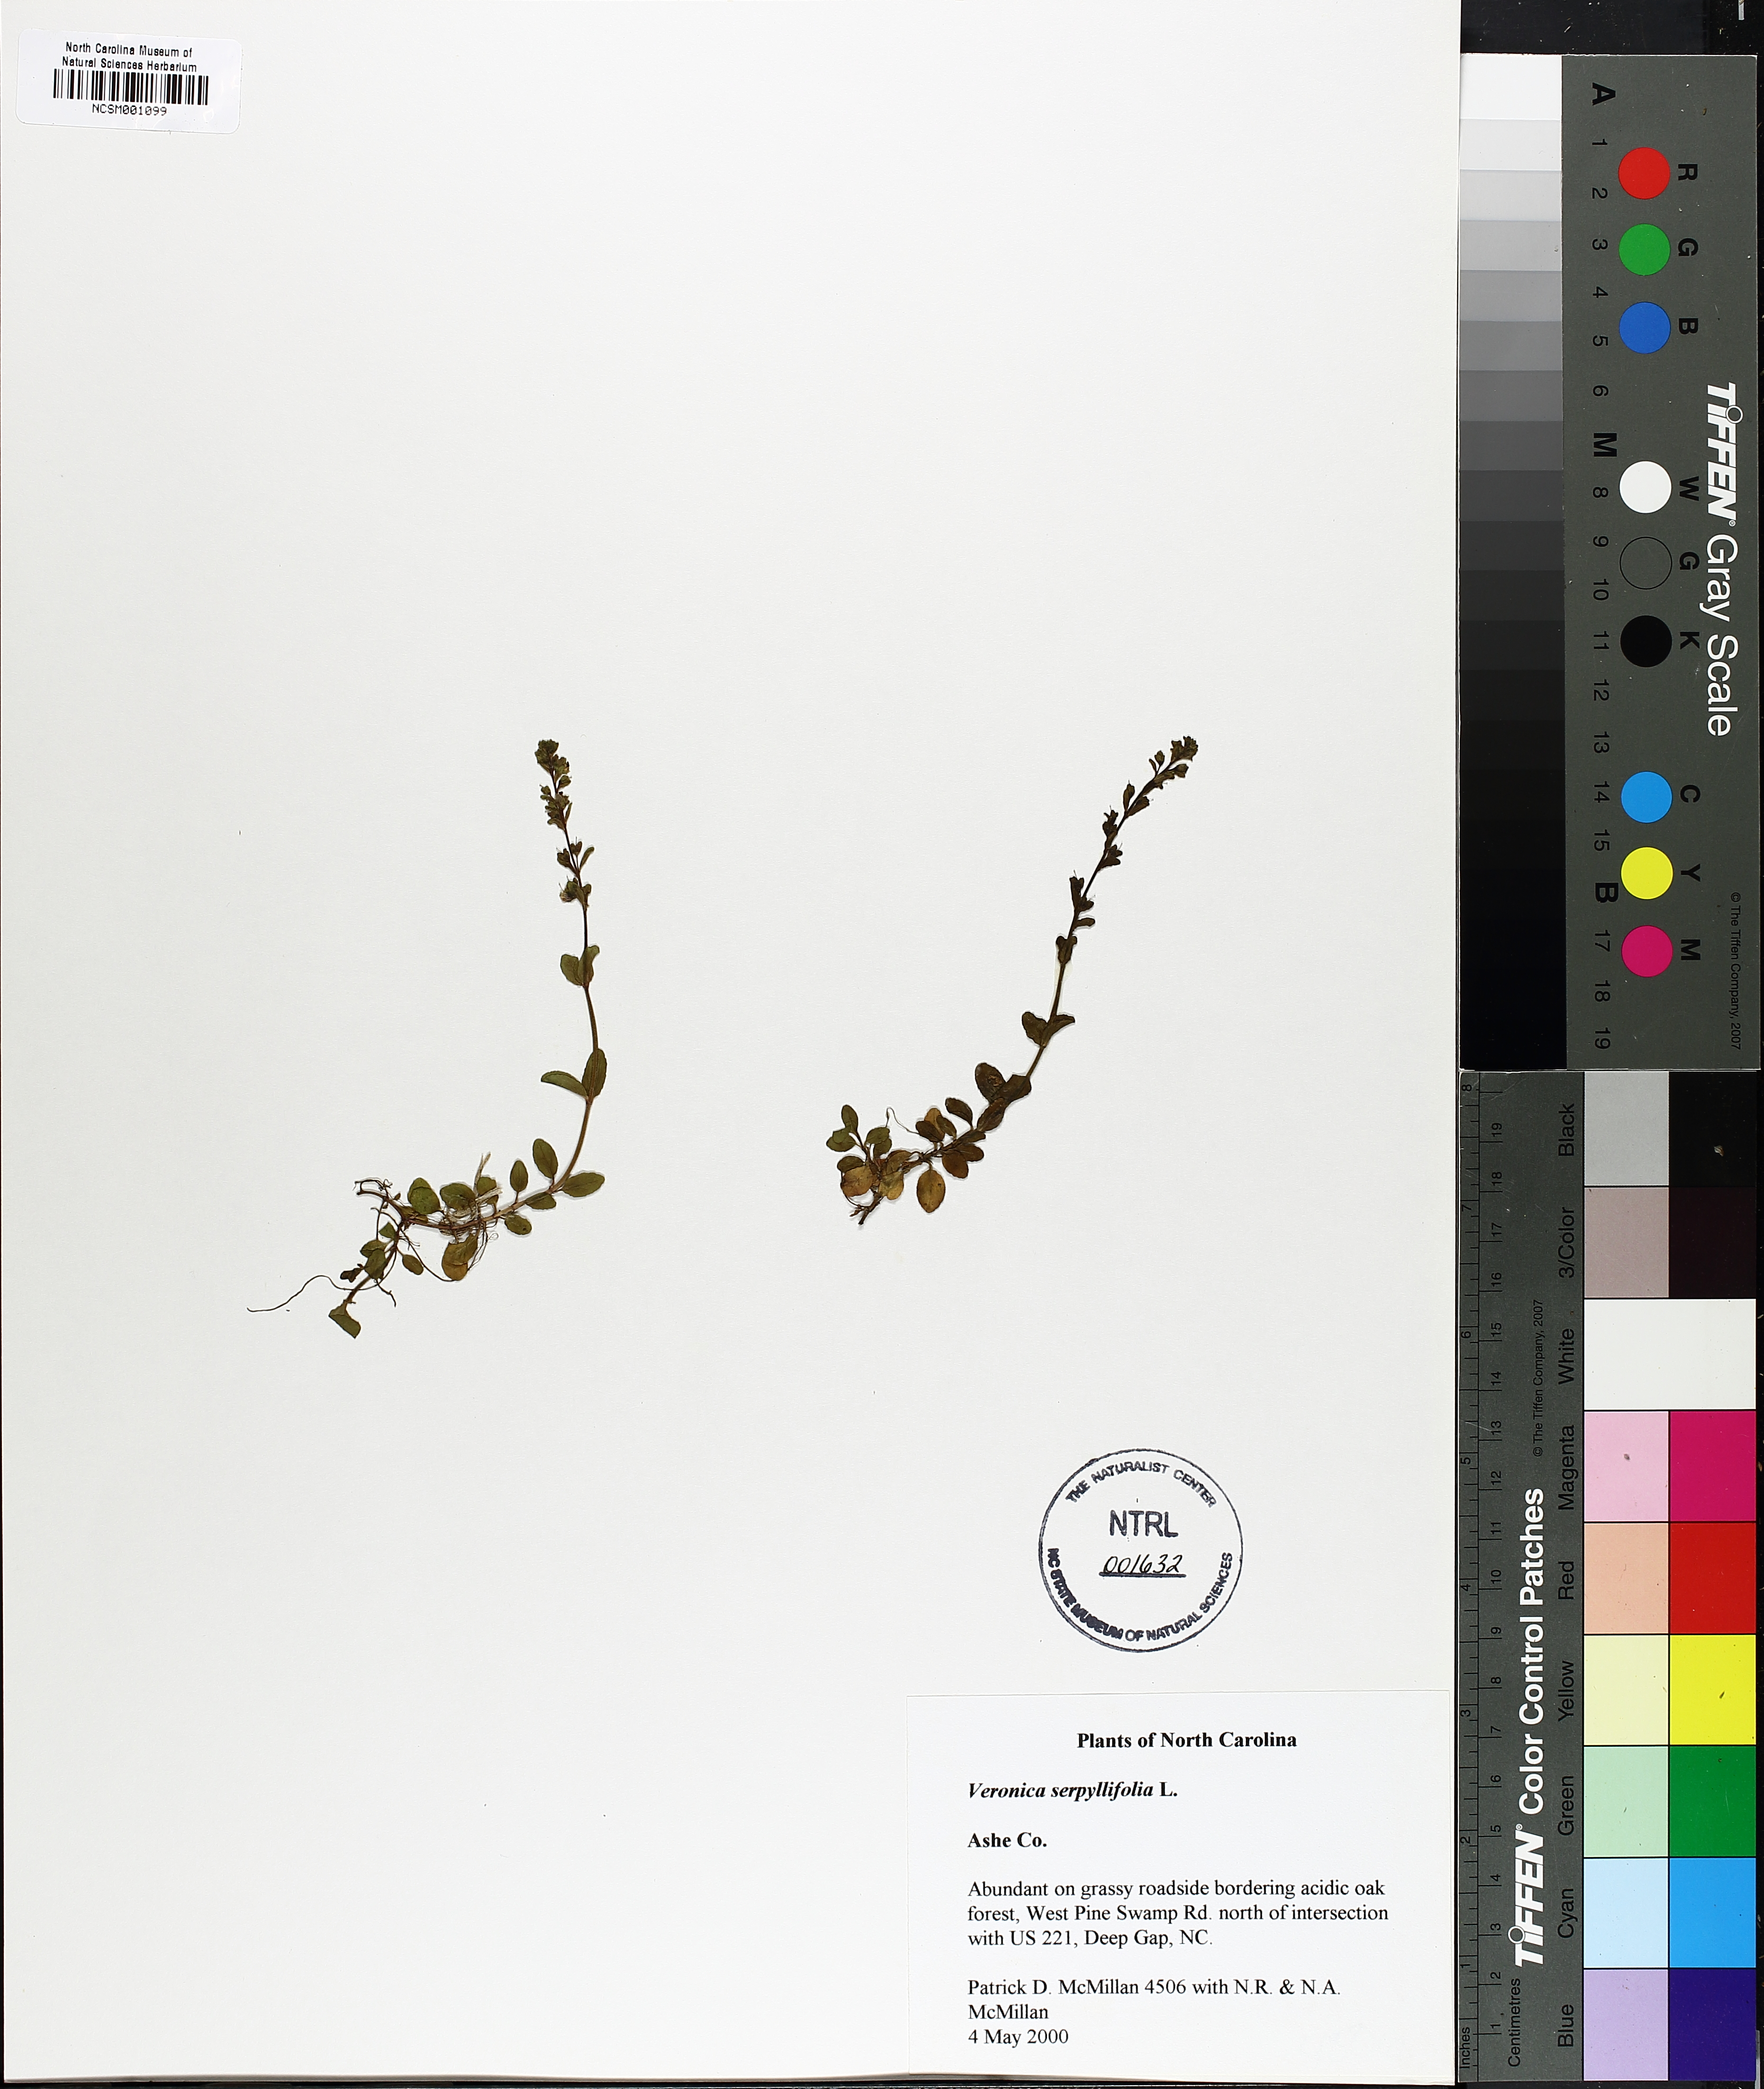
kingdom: Plantae
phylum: Tracheophyta
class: Magnoliopsida
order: Lamiales
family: Plantaginaceae
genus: Veronica
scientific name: Veronica serpyllifolia
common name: Thyme-leaved speedwell
